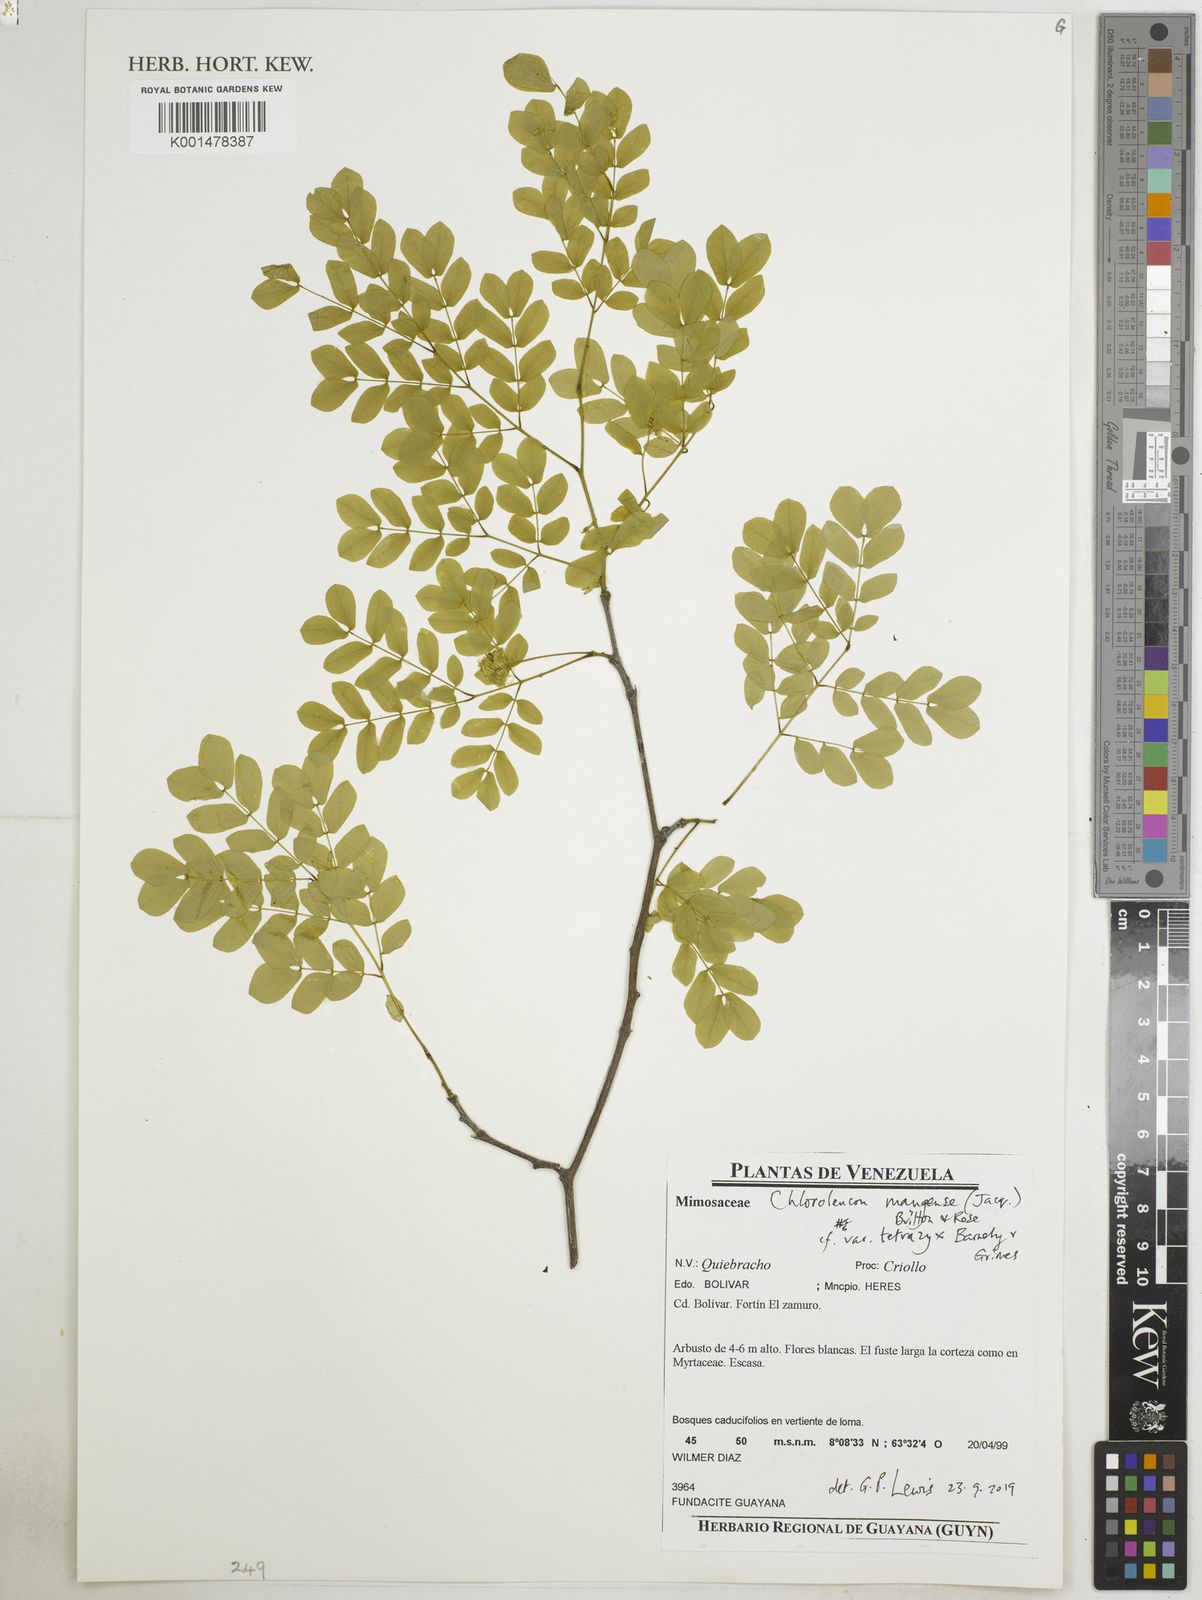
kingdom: Plantae
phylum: Tracheophyta
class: Magnoliopsida
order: Fabales
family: Fabaceae
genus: Chloroleucon
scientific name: Chloroleucon mangense
